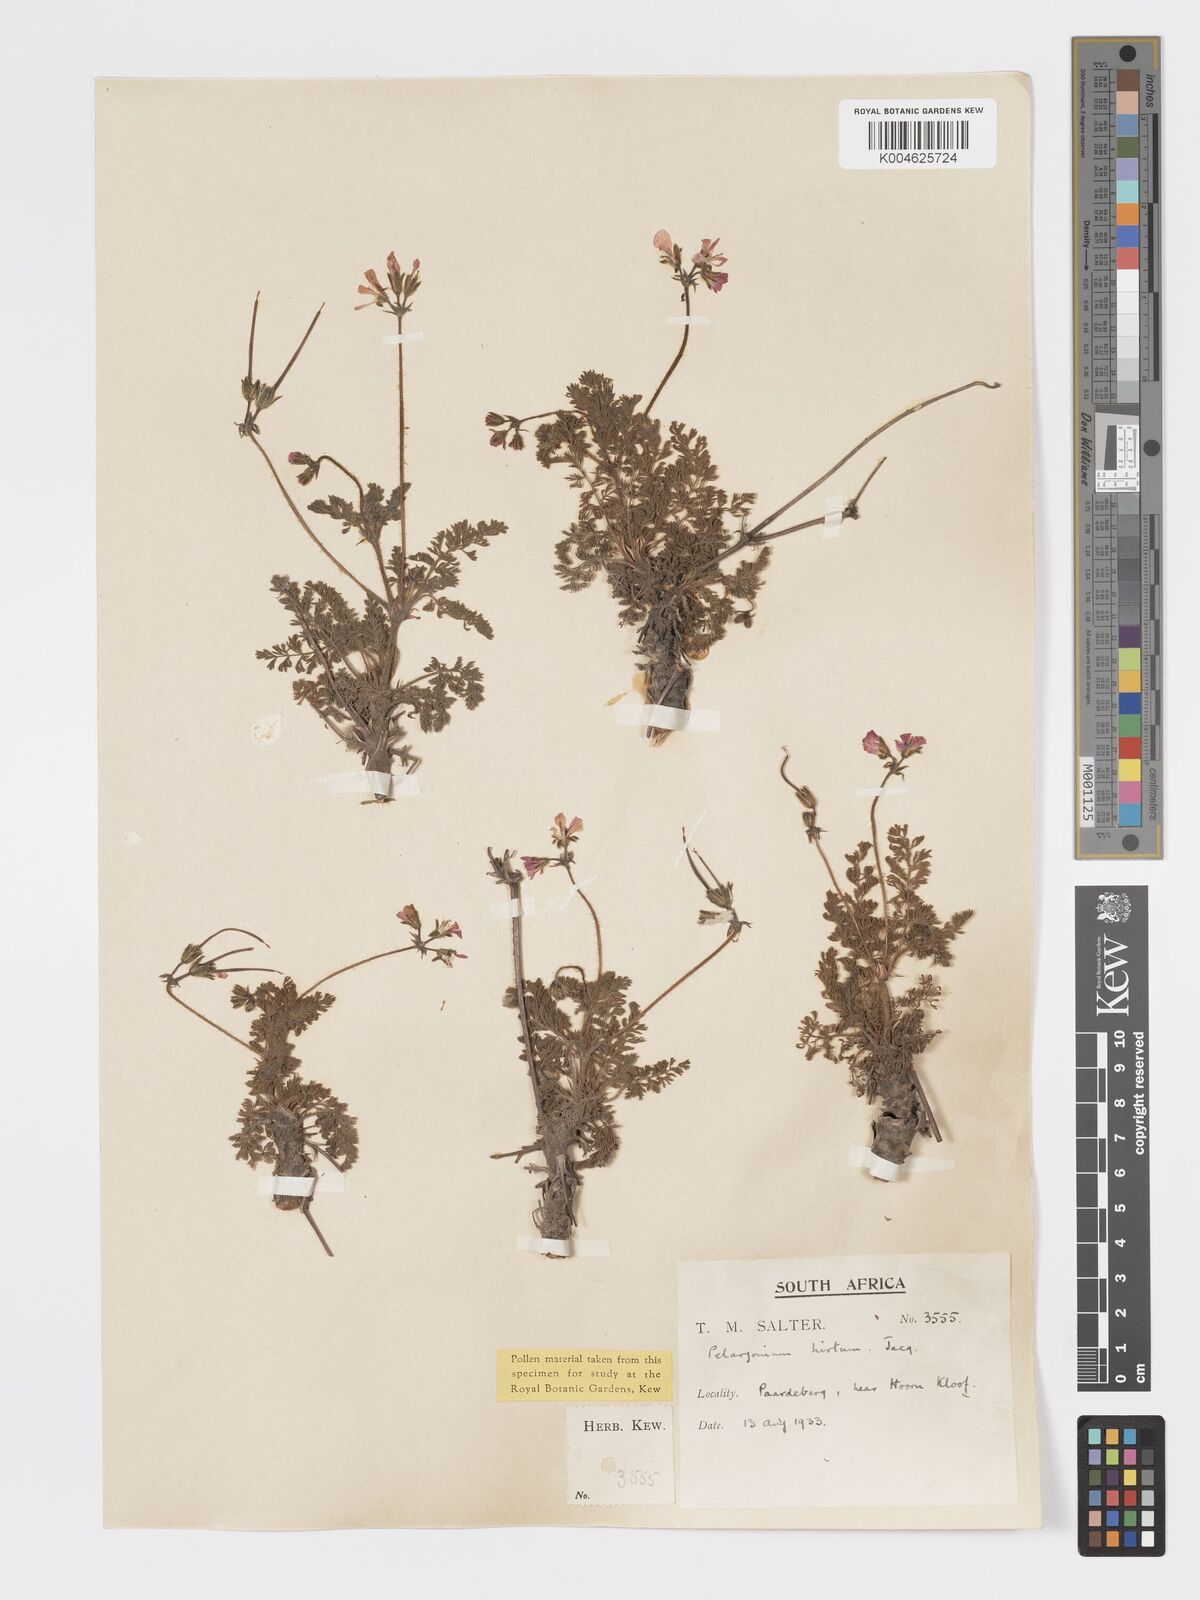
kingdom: Plantae
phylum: Tracheophyta
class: Magnoliopsida
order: Geraniales
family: Geraniaceae
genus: Pelargonium
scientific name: Pelargonium
